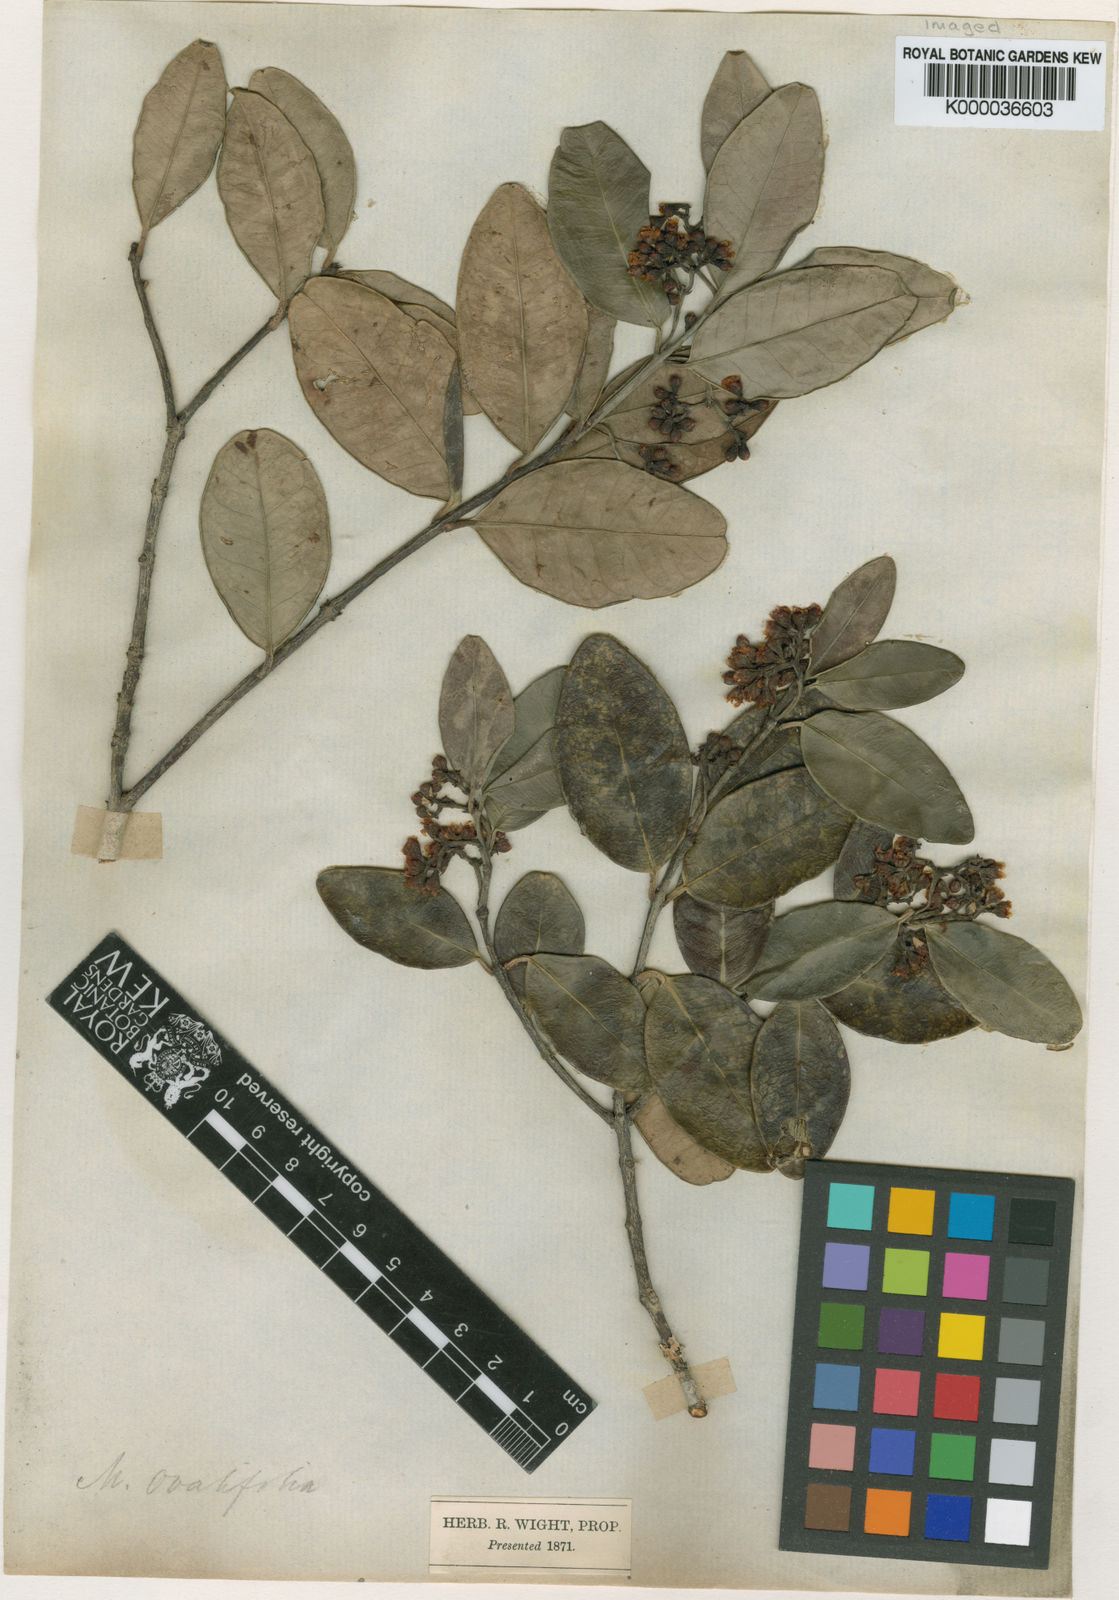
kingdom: Plantae
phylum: Tracheophyta
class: Magnoliopsida
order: Celastrales
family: Celastraceae
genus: Microtropis
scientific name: Microtropis microcarpa
